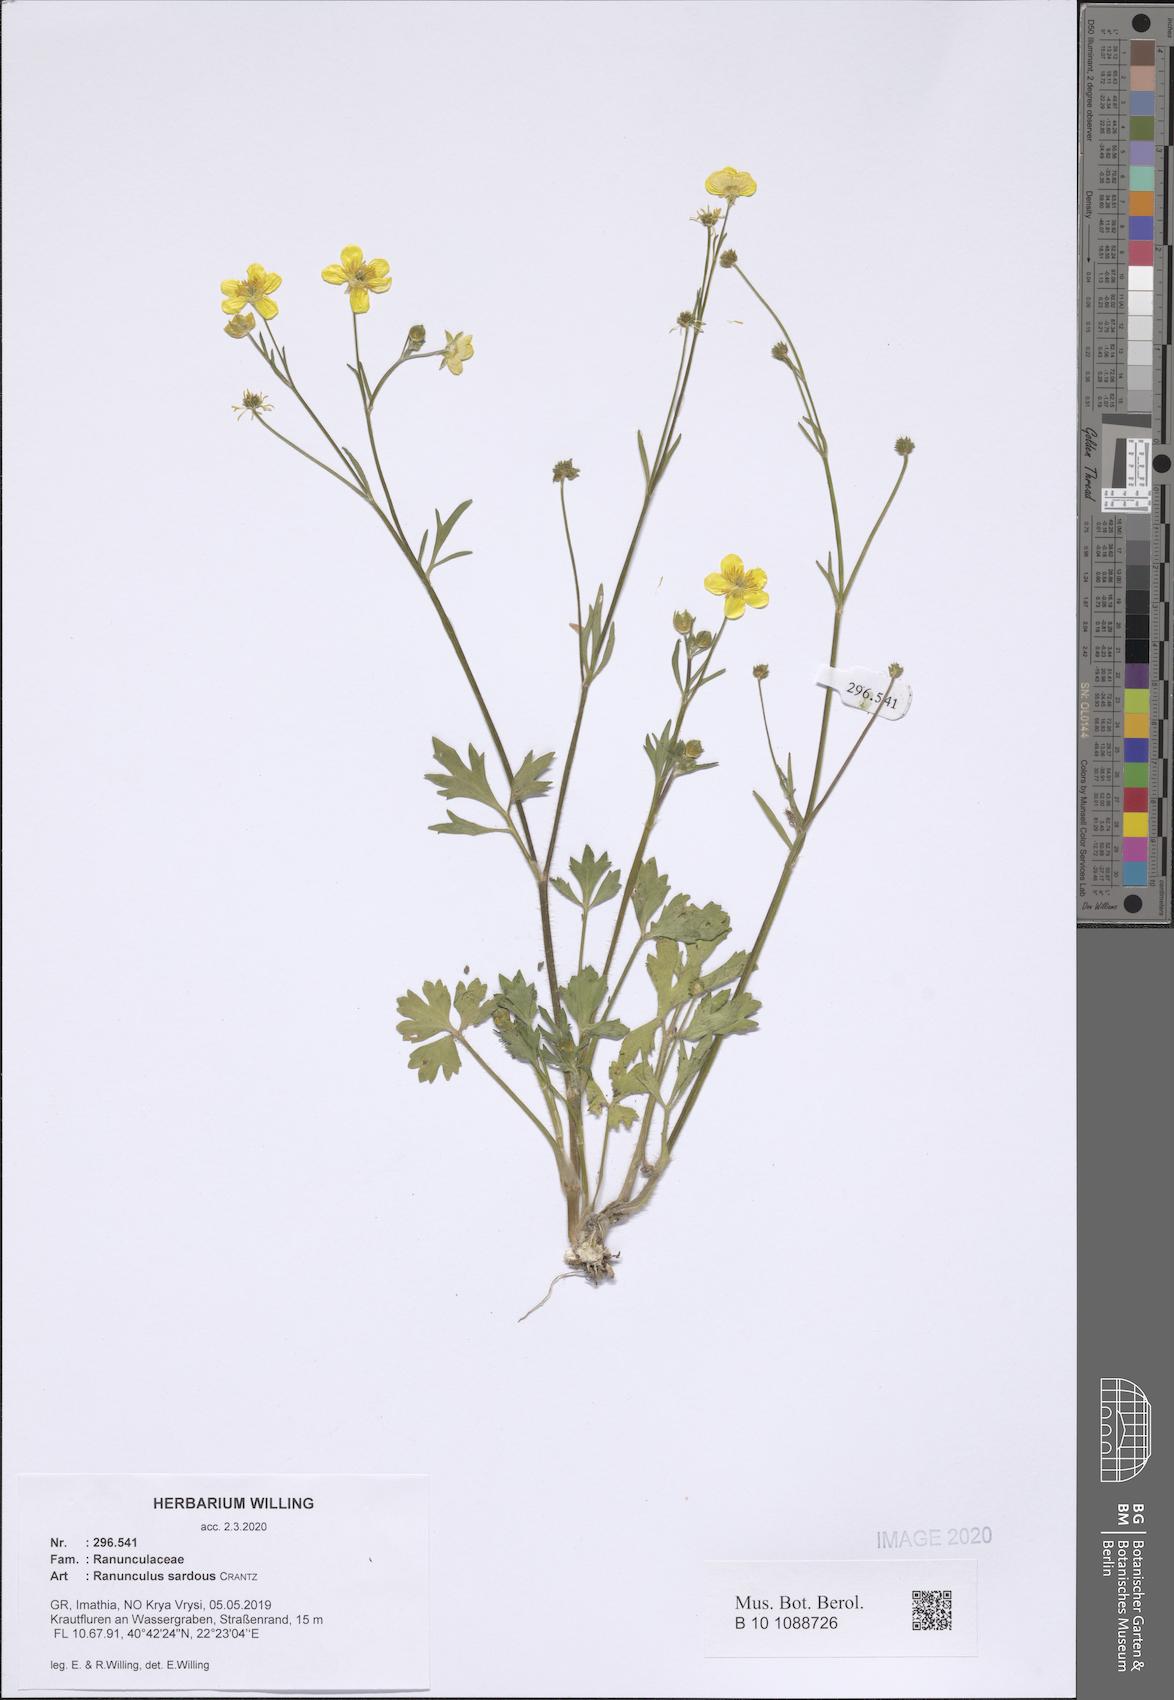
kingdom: Plantae
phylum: Tracheophyta
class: Magnoliopsida
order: Ranunculales
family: Ranunculaceae
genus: Ranunculus
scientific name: Ranunculus sardous
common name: Hairy buttercup
